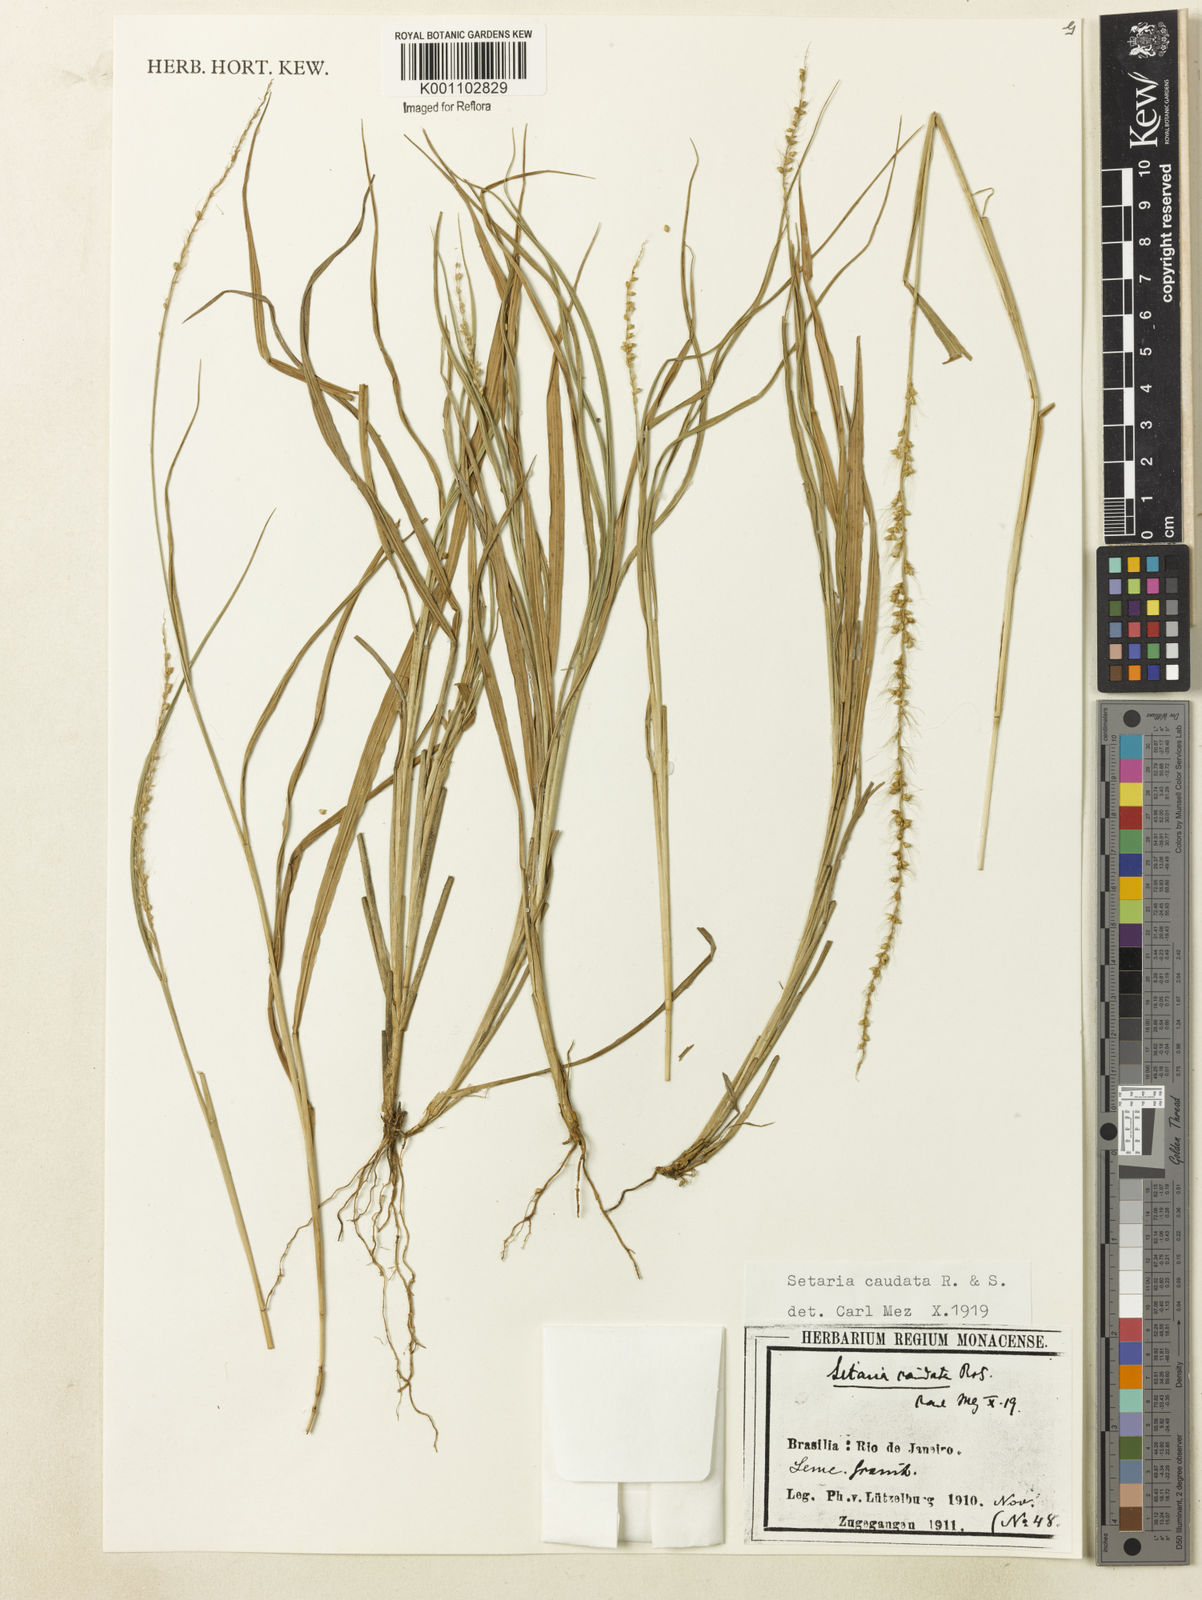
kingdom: Plantae
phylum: Tracheophyta
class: Liliopsida
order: Poales
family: Poaceae
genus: Setaria
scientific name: Setaria setosa
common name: West indies bristle grass
